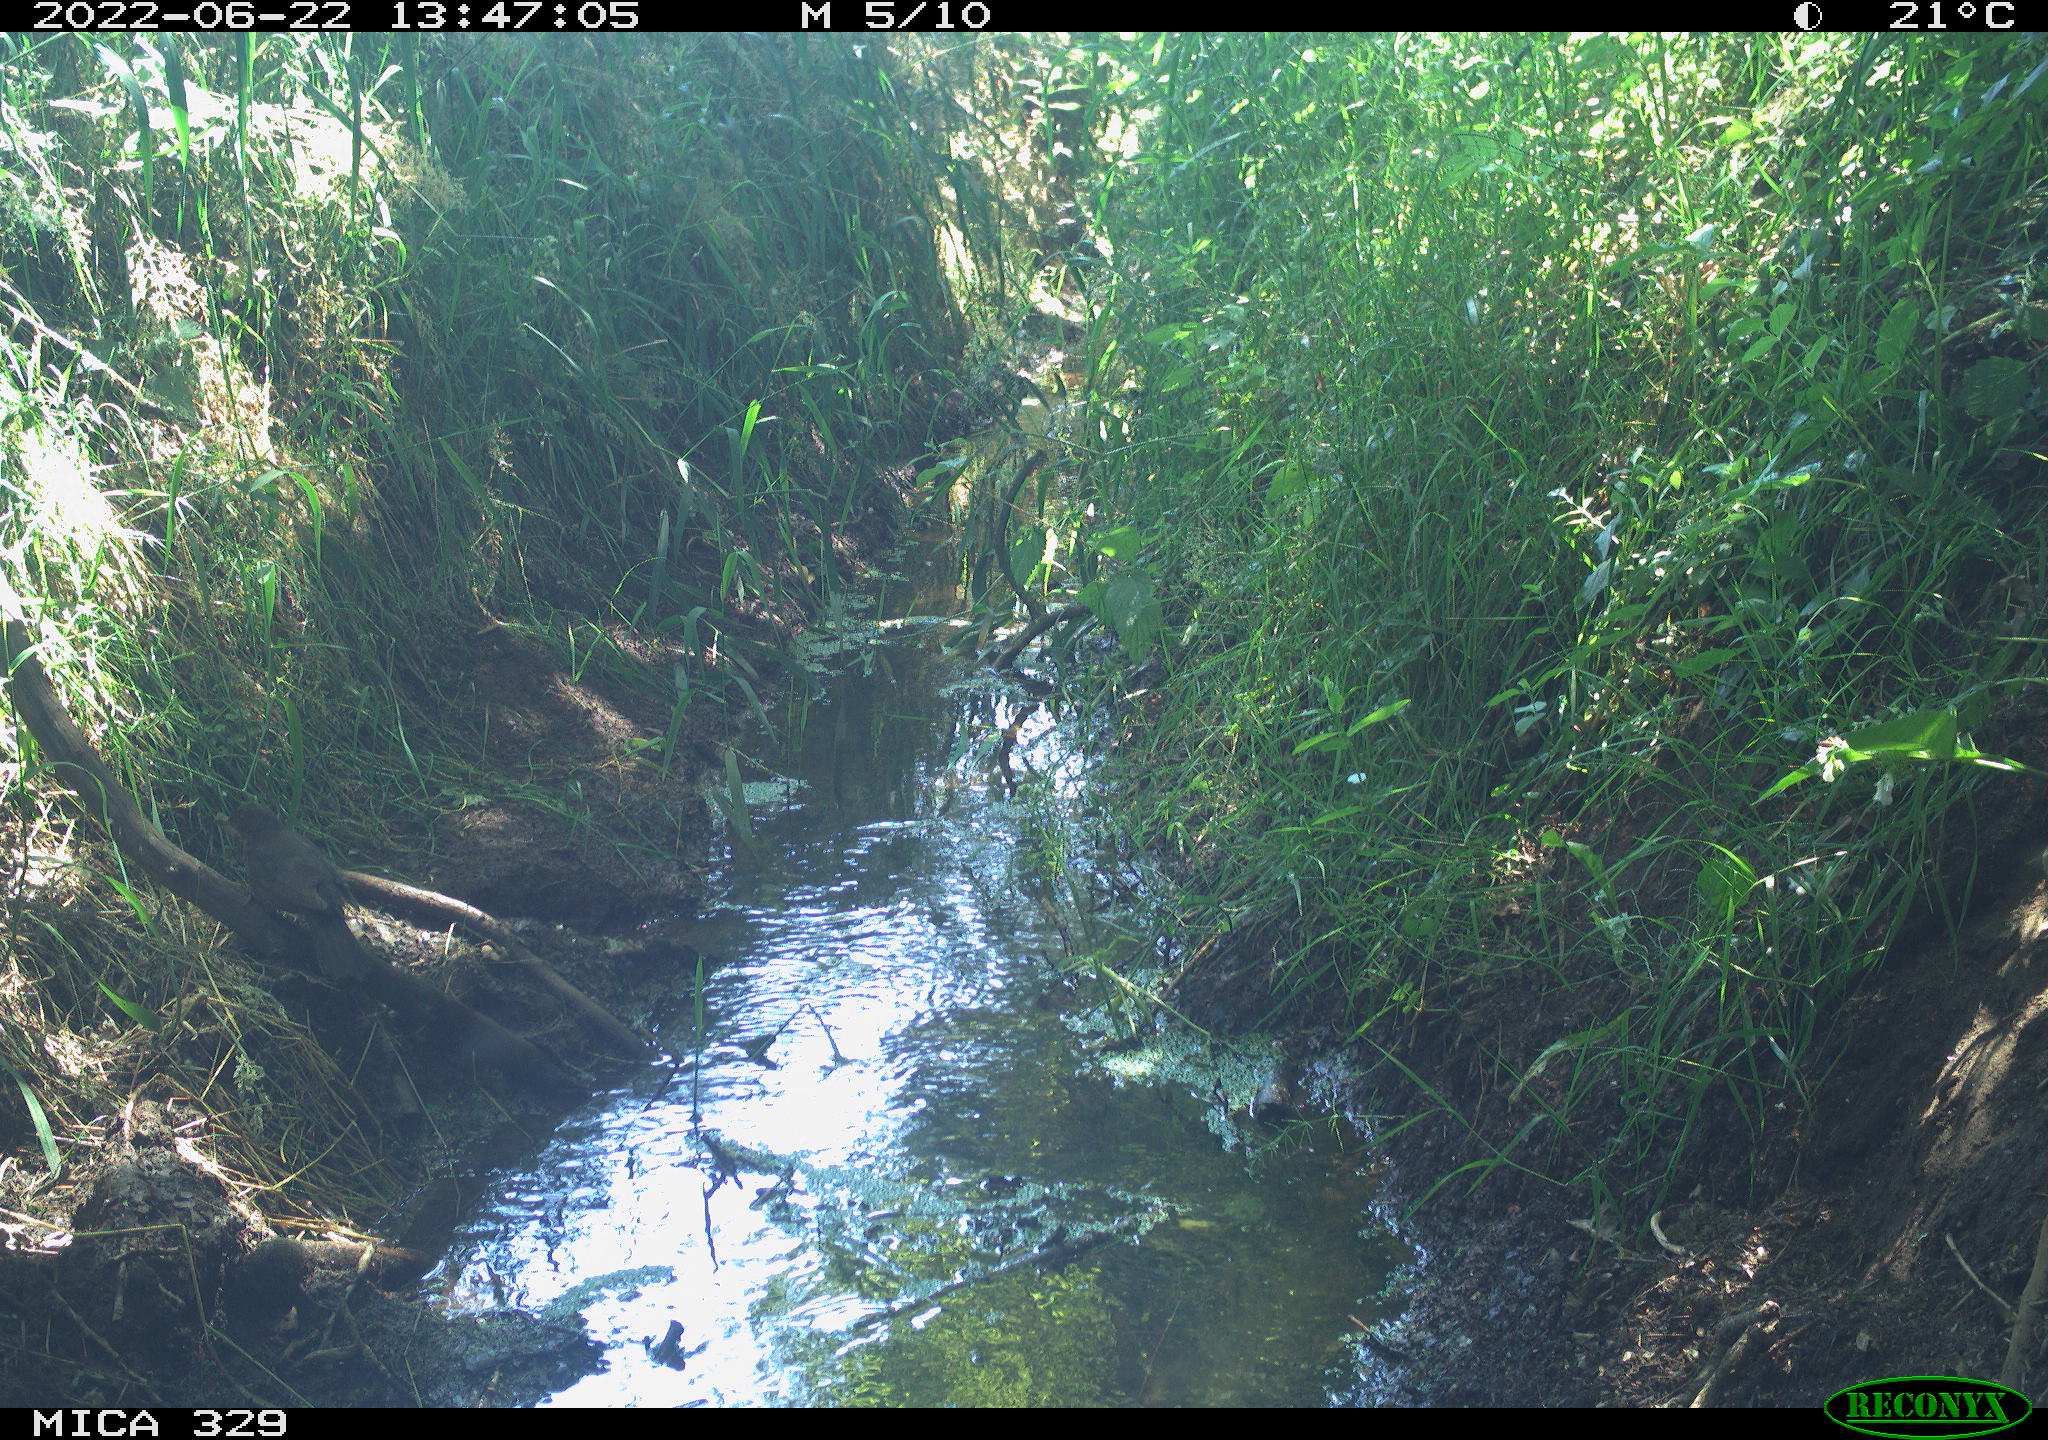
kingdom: Animalia
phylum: Chordata
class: Aves
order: Passeriformes
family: Turdidae
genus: Turdus
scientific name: Turdus merula
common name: Common blackbird
